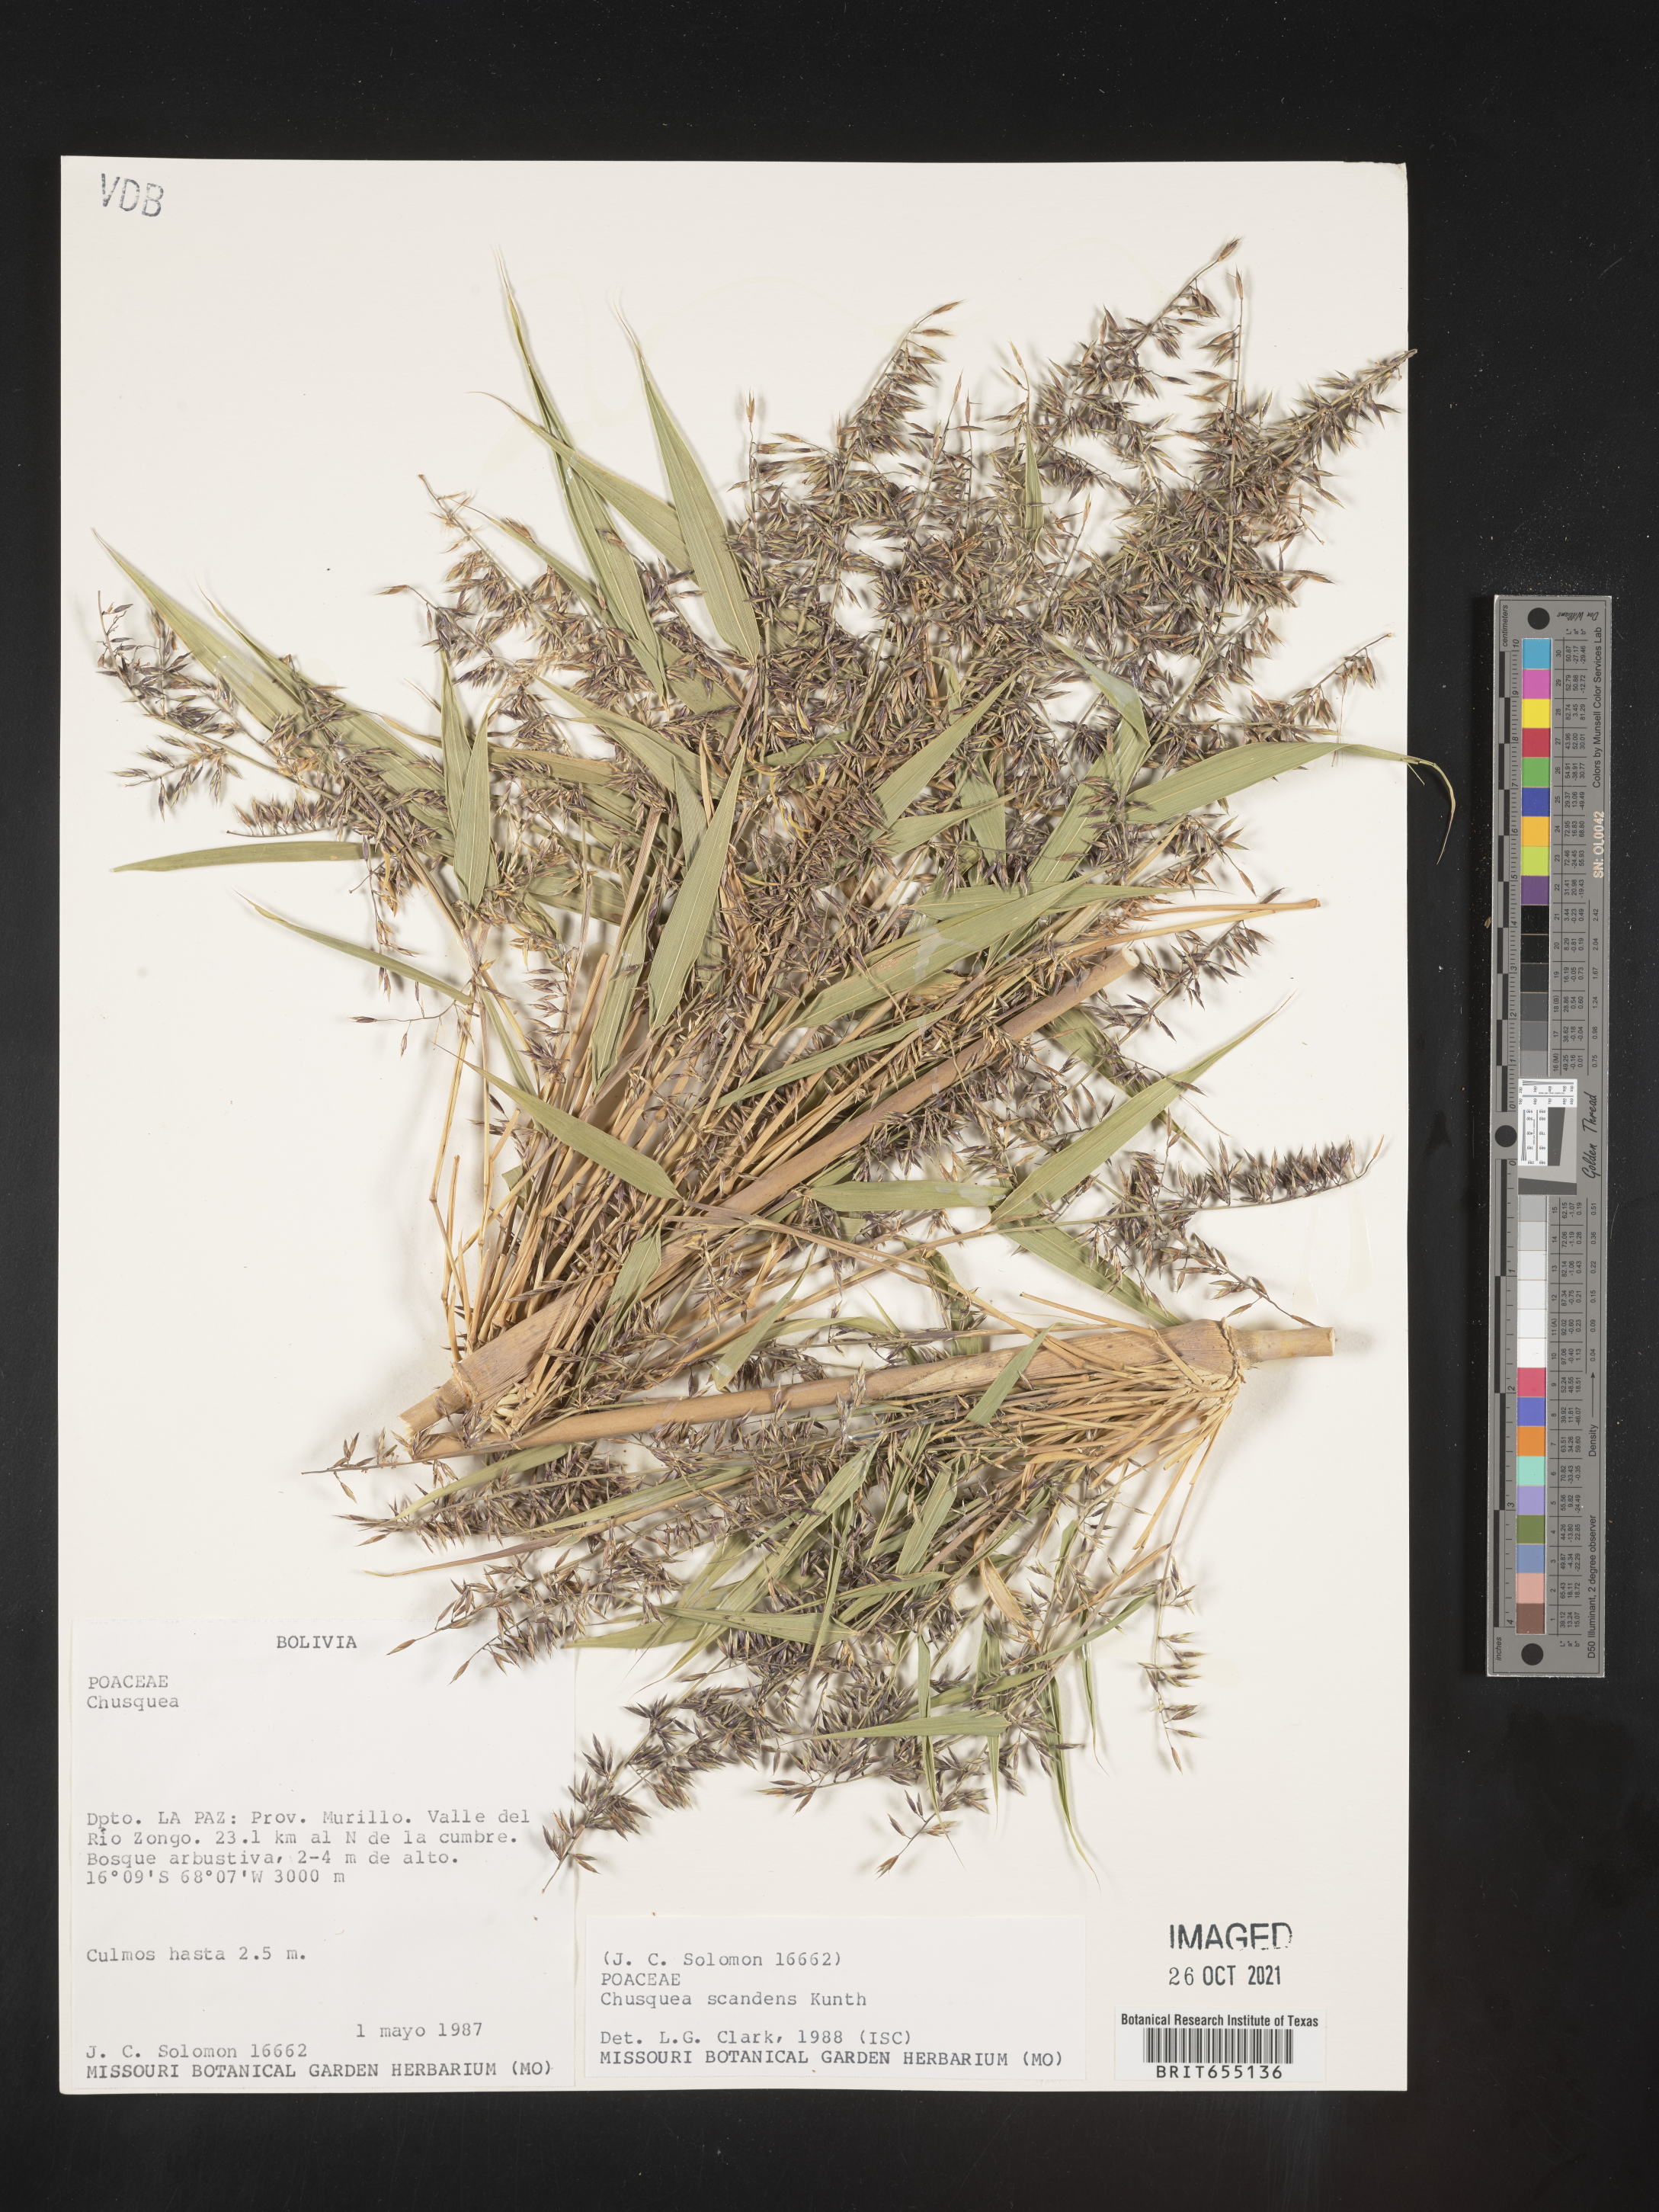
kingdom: Plantae
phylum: Tracheophyta
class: Liliopsida
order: Poales
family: Poaceae
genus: Chusquea
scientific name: Chusquea
